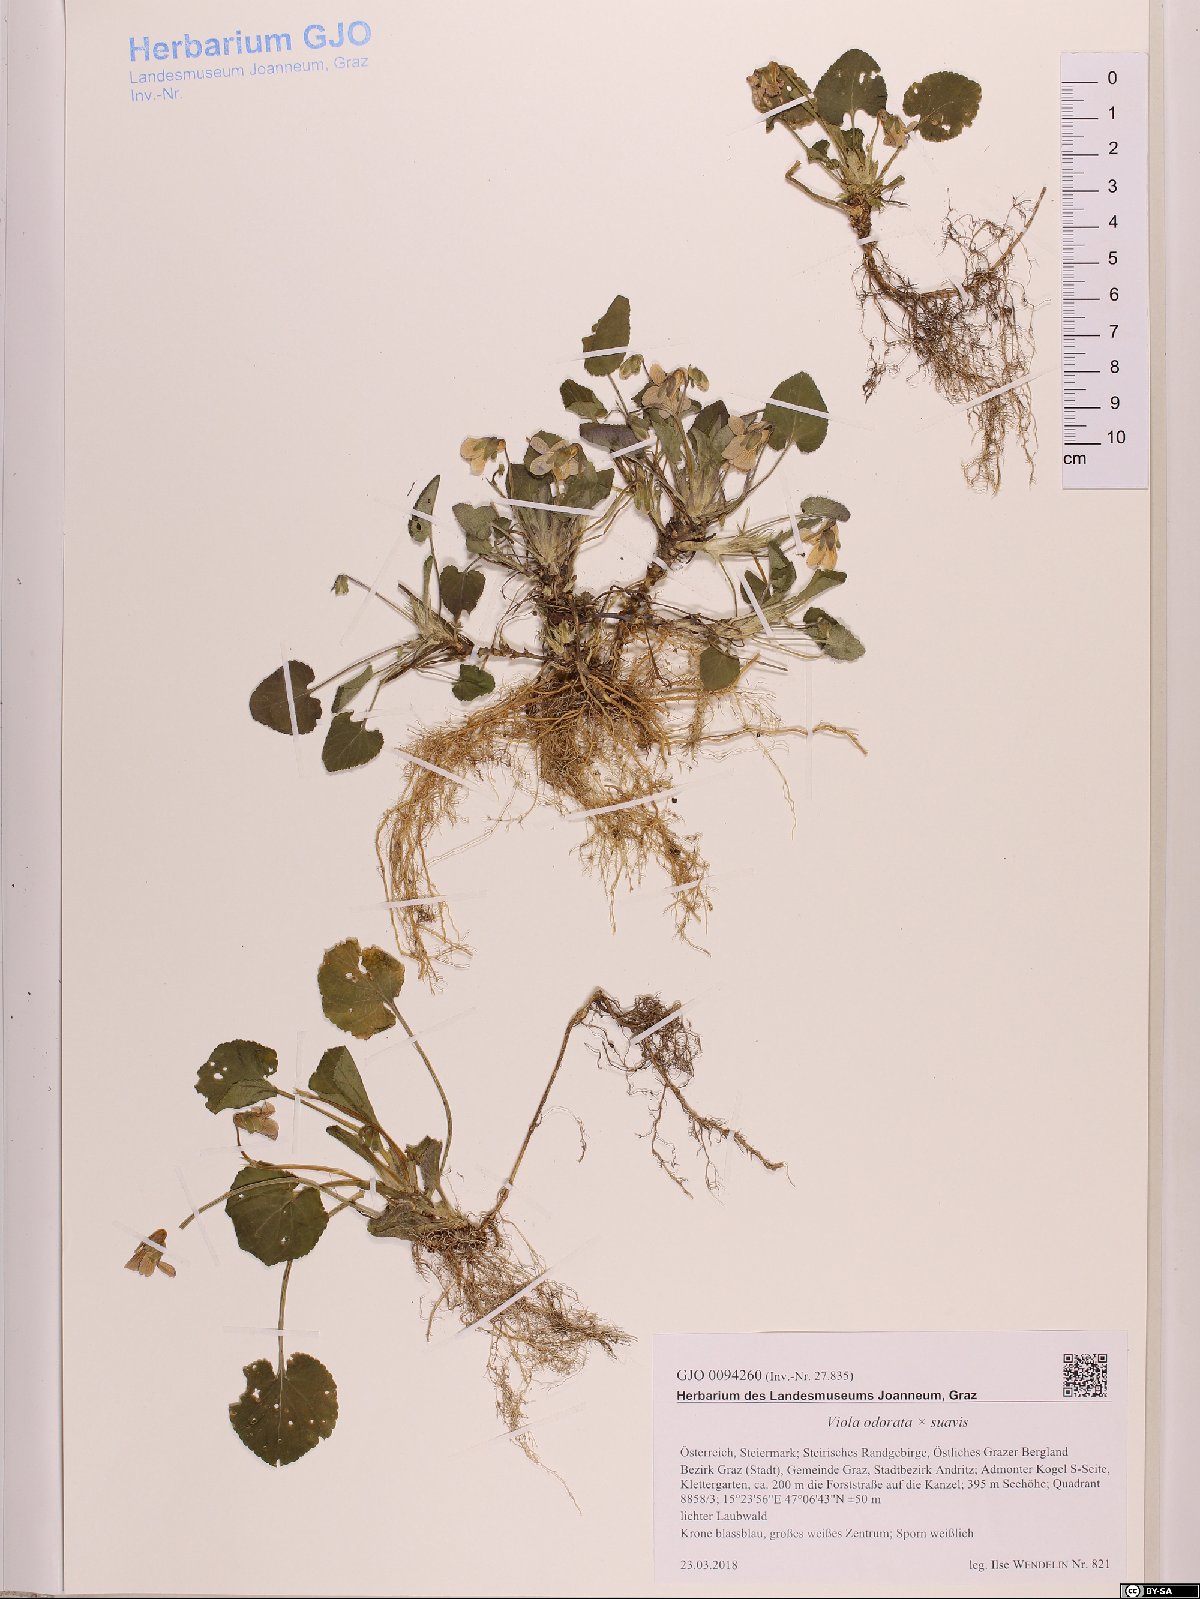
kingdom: Plantae
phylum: Tracheophyta
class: Magnoliopsida
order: Malpighiales
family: Violaceae
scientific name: Violaceae
